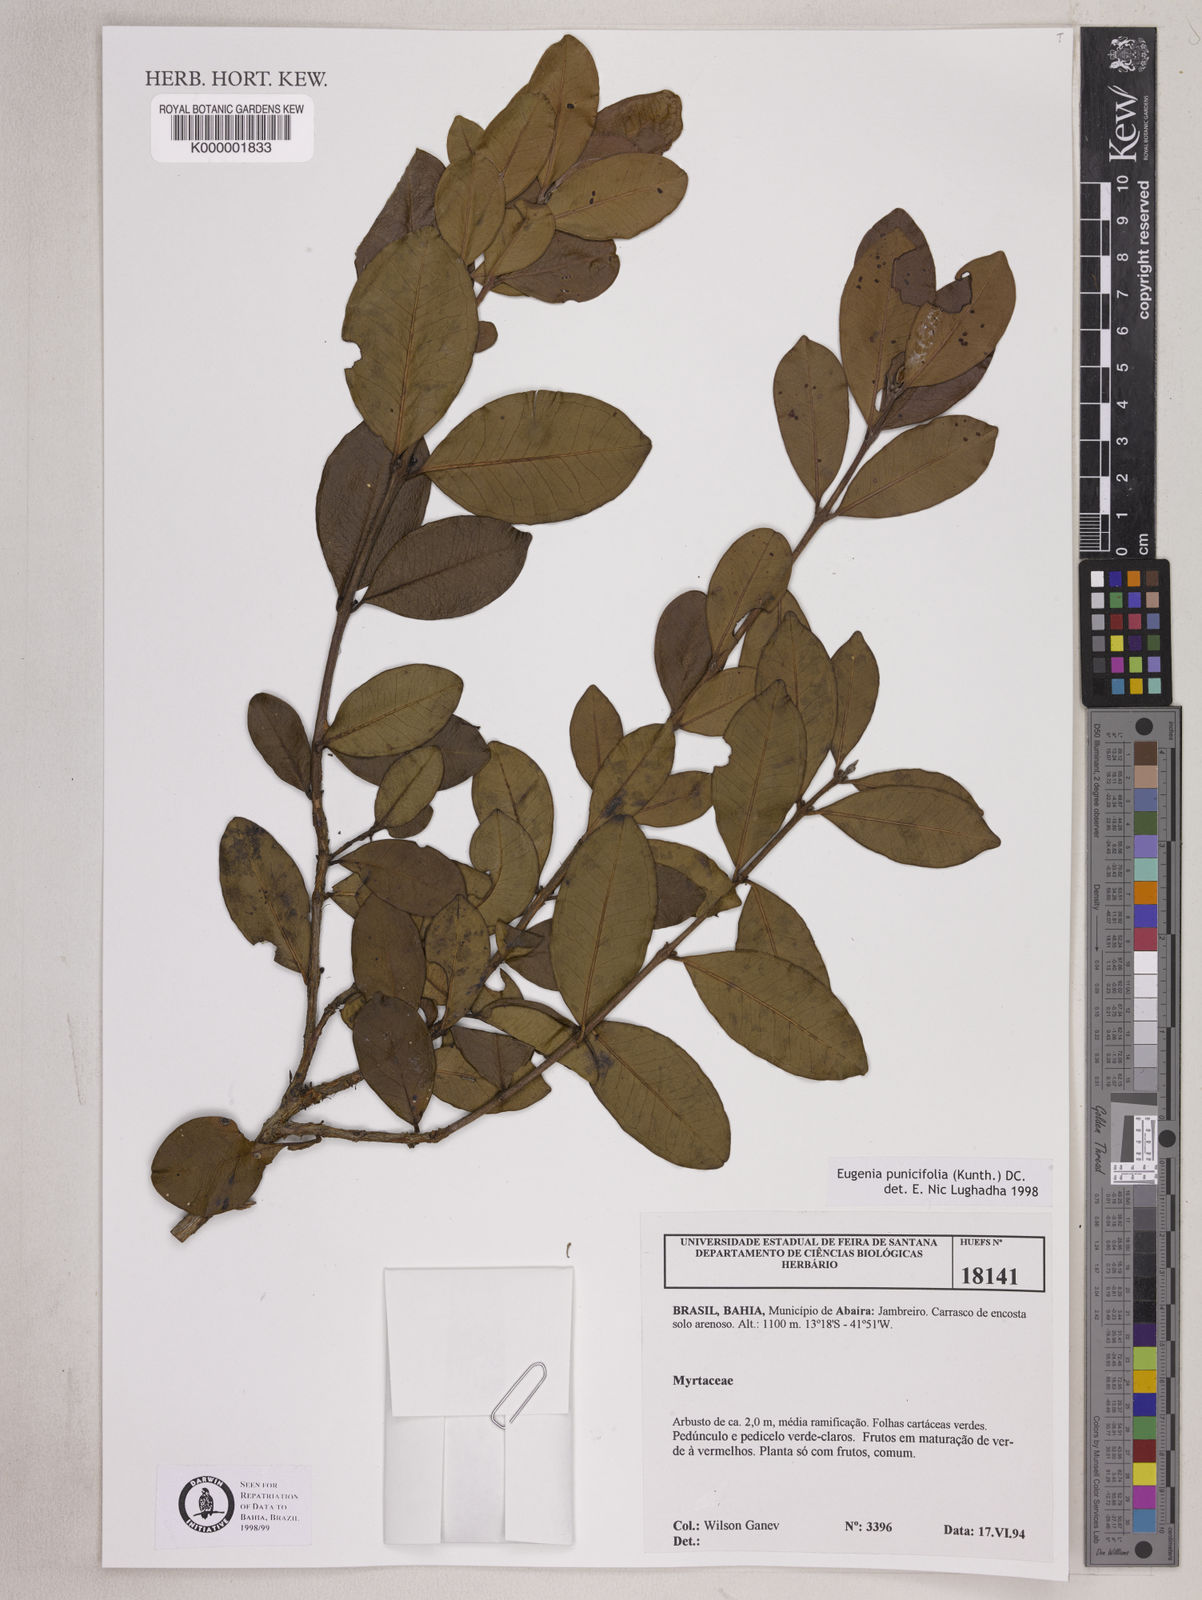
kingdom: Plantae
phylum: Tracheophyta
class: Magnoliopsida
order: Myrtales
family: Myrtaceae
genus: Eugenia
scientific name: Eugenia punicifolia
